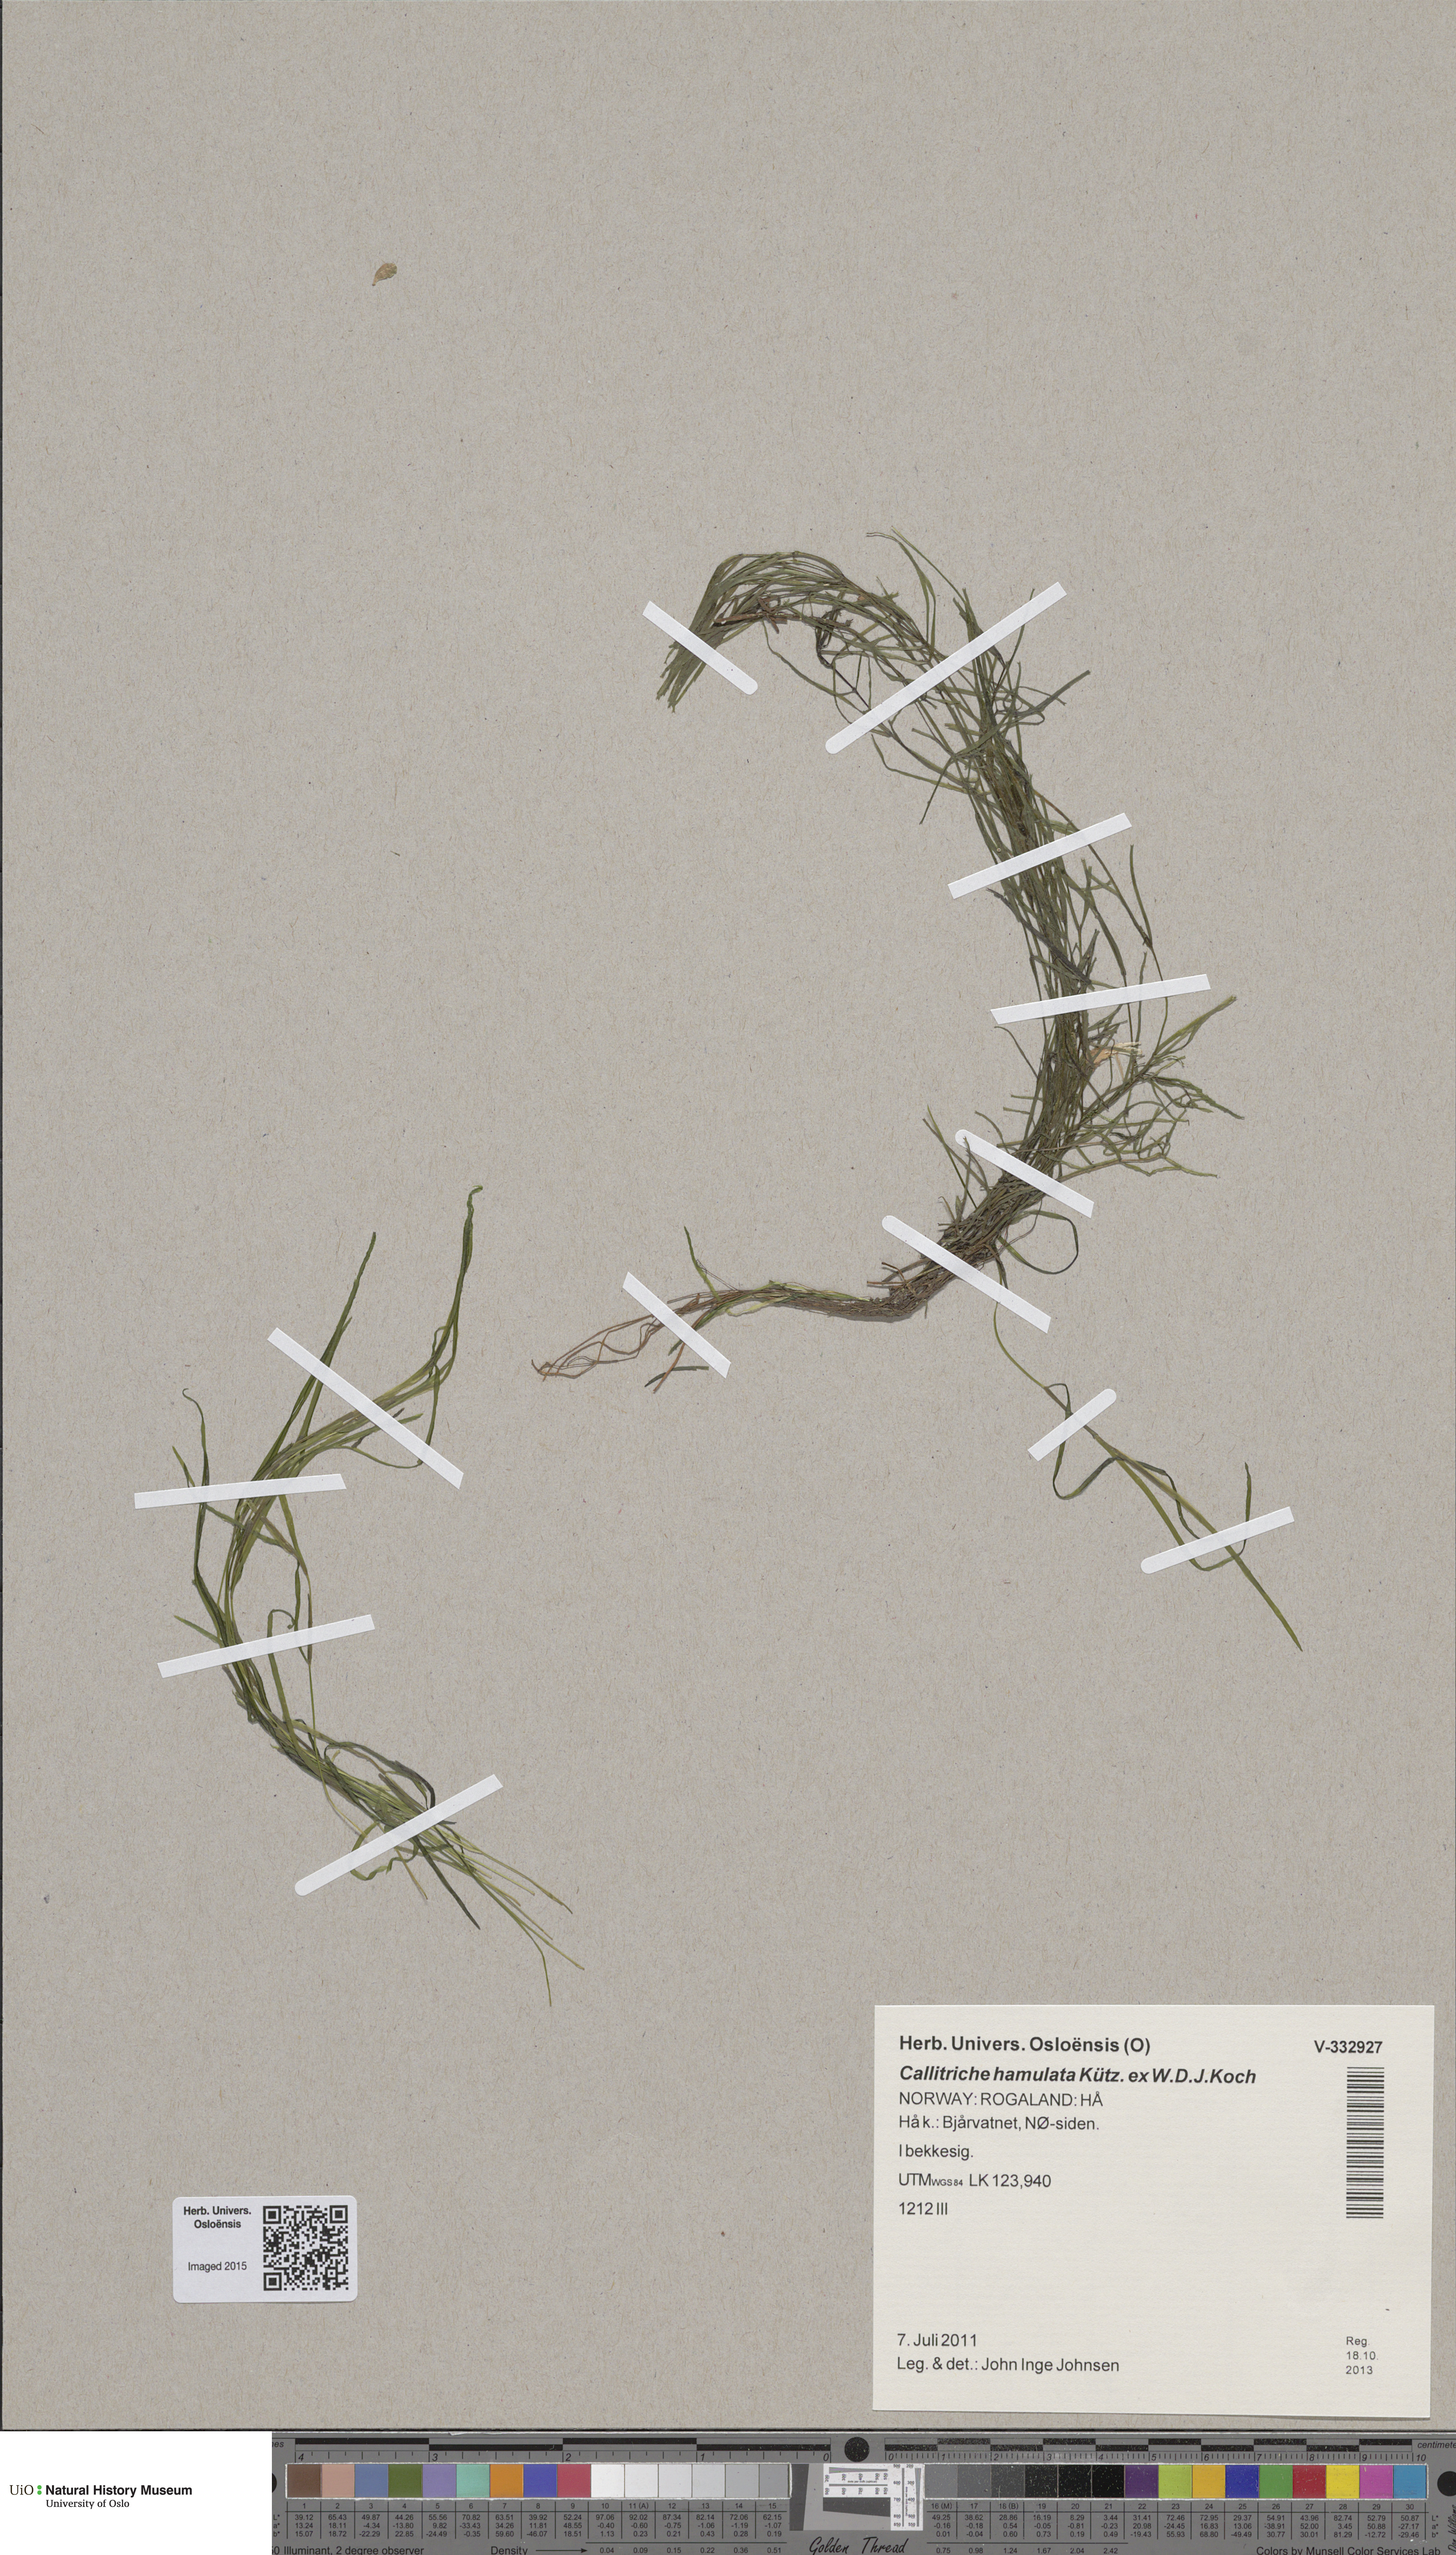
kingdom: Plantae
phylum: Tracheophyta
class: Magnoliopsida
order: Lamiales
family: Plantaginaceae
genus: Callitriche
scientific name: Callitriche hamulata
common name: Intermediate water-starwort
